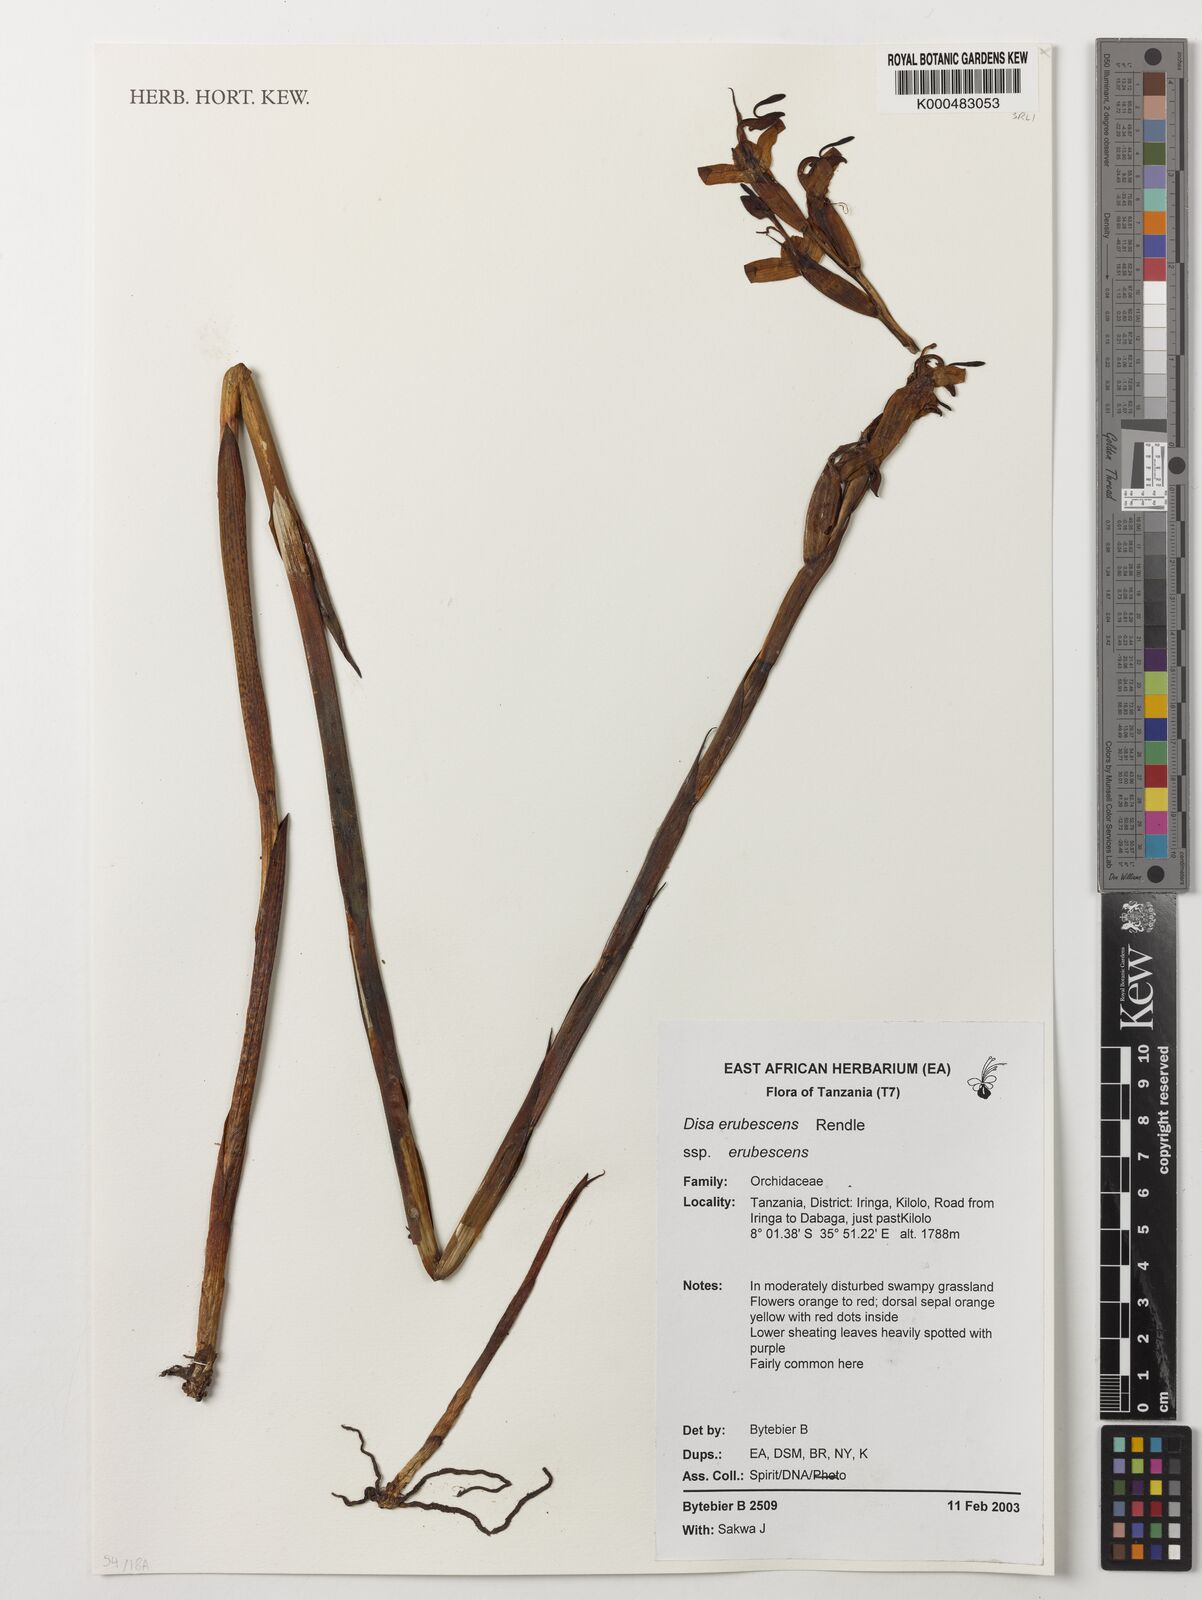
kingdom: Plantae
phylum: Tracheophyta
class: Liliopsida
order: Asparagales
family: Orchidaceae
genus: Disa
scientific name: Disa erubescens
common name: The rose disa
